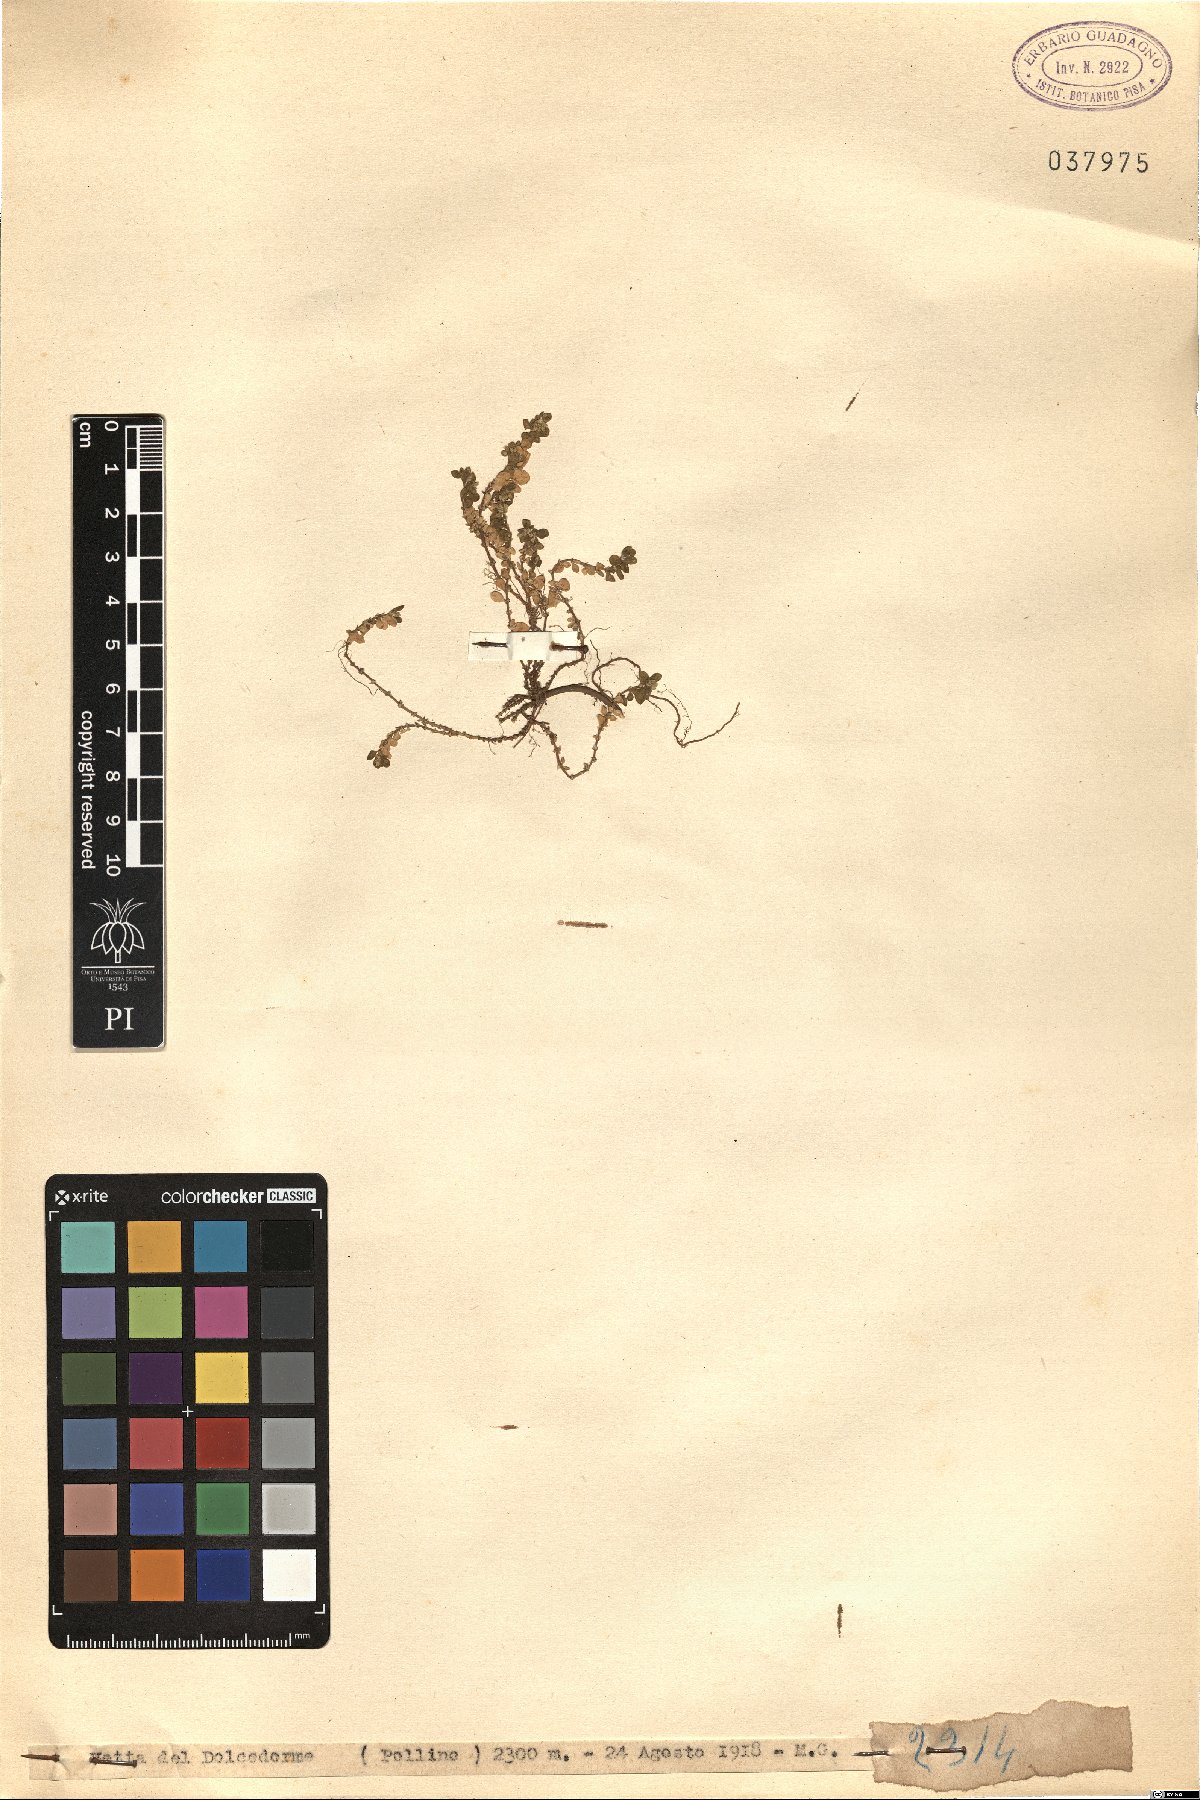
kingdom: Plantae
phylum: Tracheophyta
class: Magnoliopsida
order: Caryophyllales
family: Caryophyllaceae
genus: Herniaria
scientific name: Herniaria
